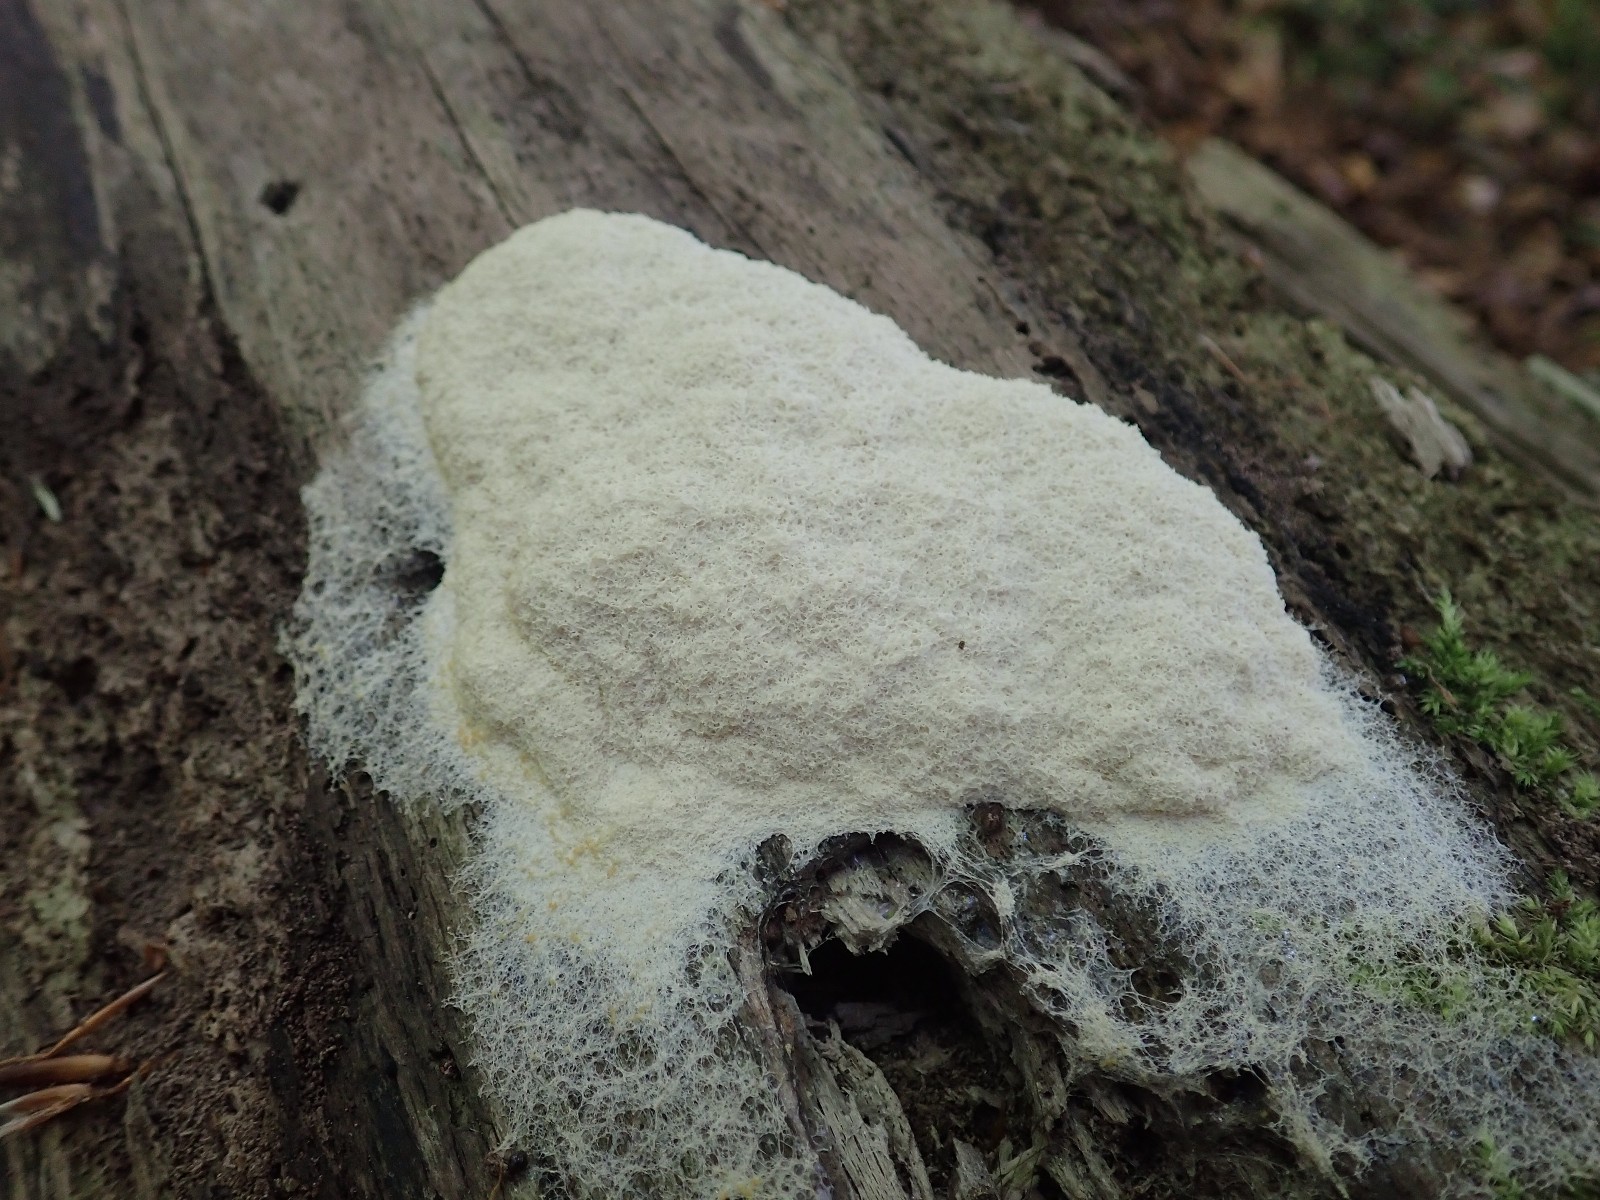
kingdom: Protozoa
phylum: Mycetozoa
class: Myxomycetes
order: Physarales
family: Physaraceae
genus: Fuligo
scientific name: Fuligo septica
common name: gul troldsmør
